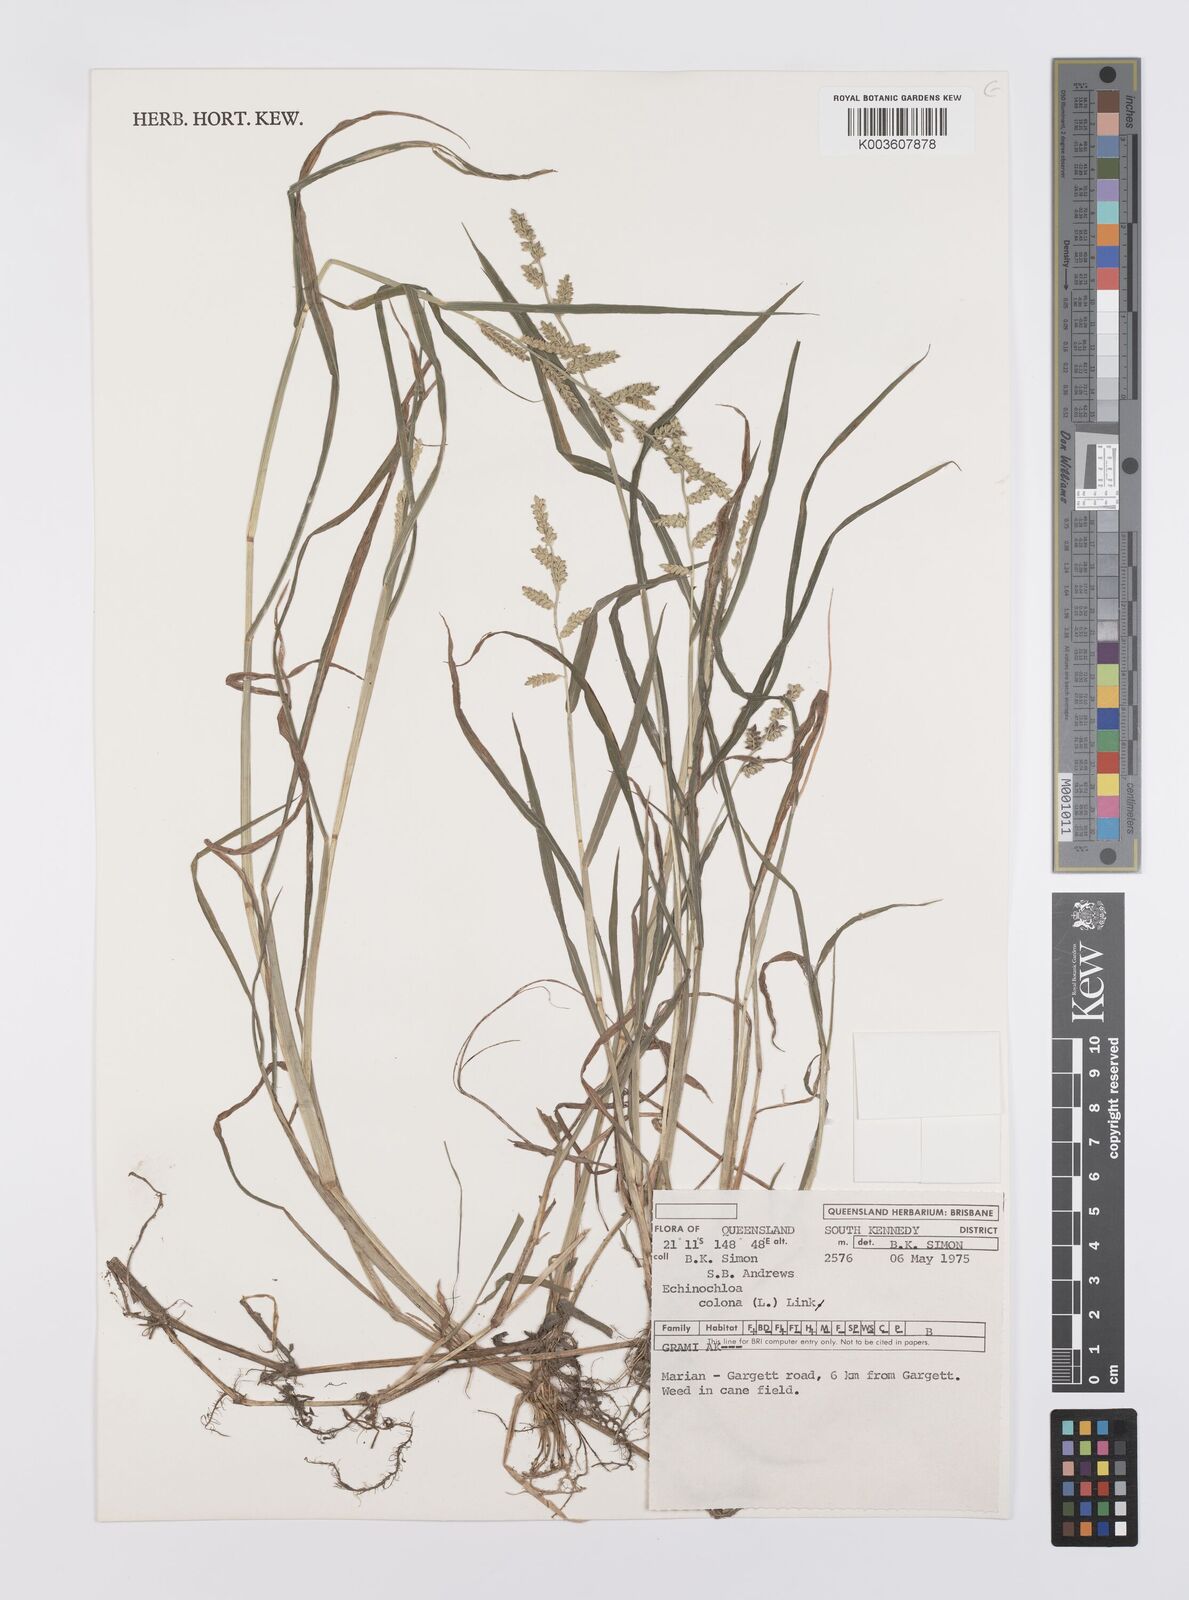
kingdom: Plantae
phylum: Tracheophyta
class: Liliopsida
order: Poales
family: Poaceae
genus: Echinochloa
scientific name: Echinochloa colonum
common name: Jungle rice
